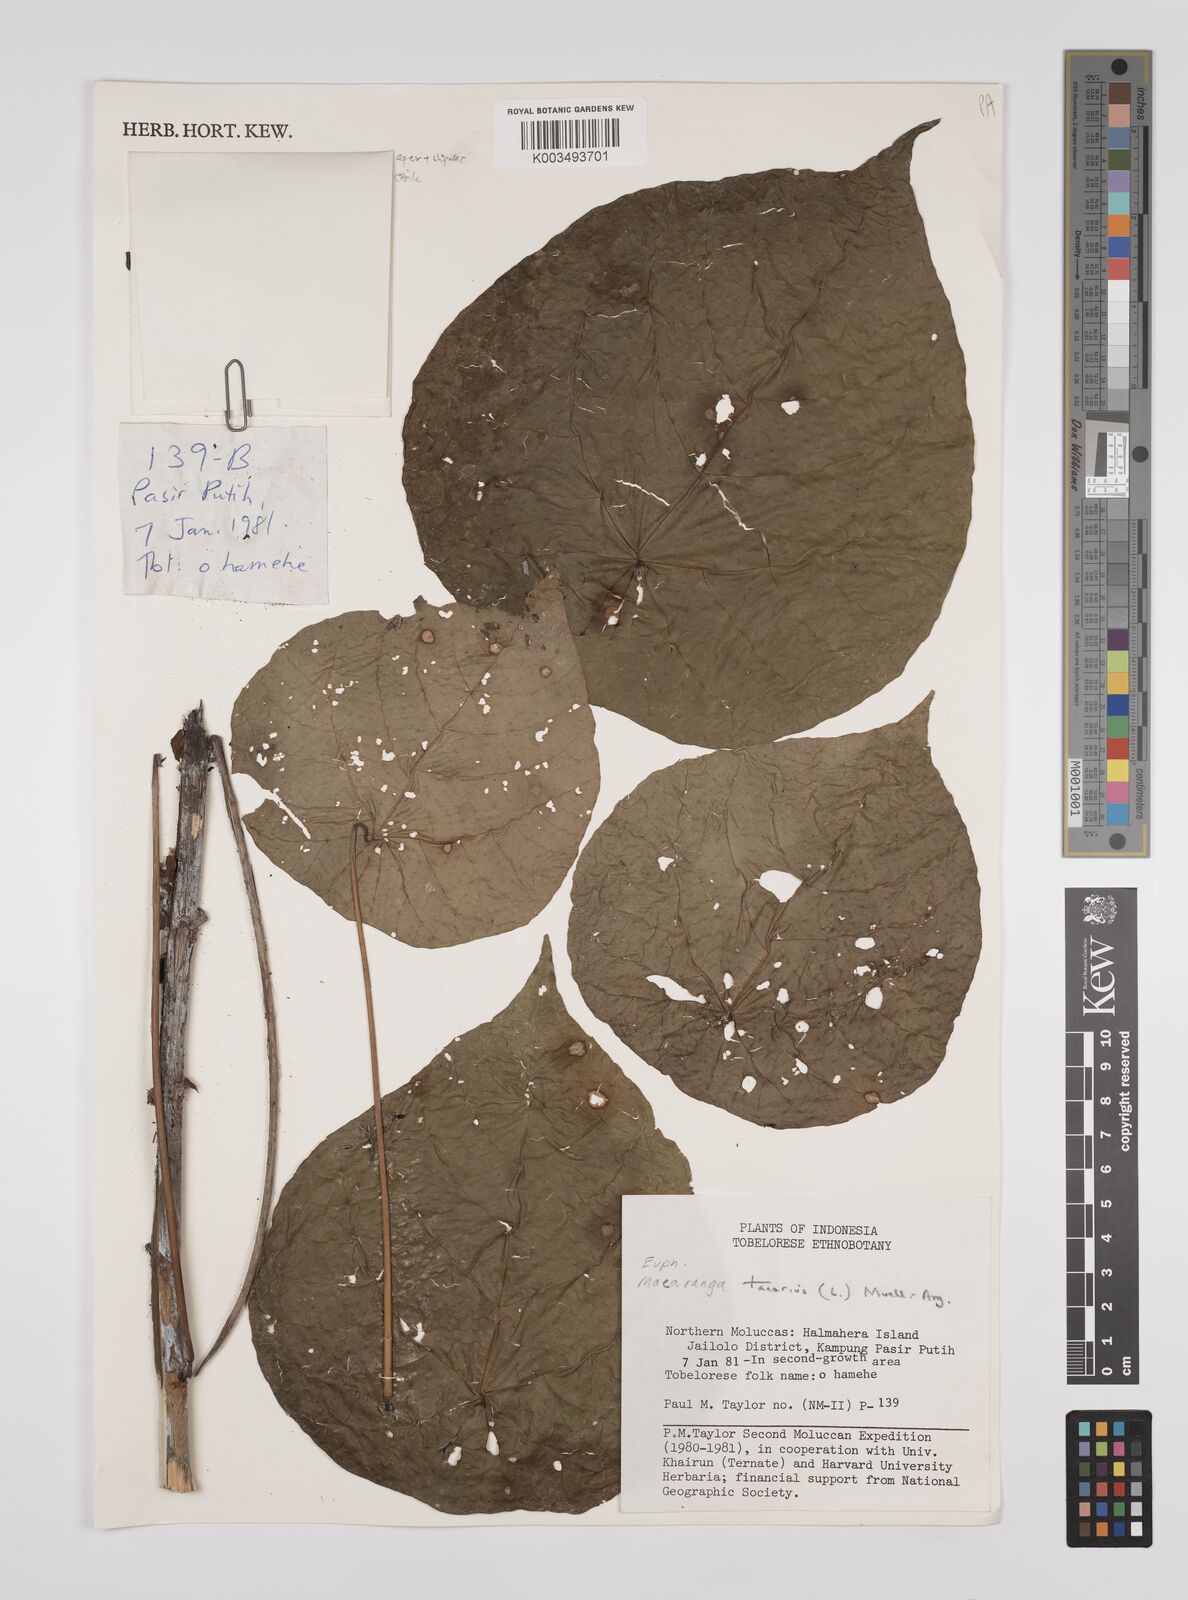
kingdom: Plantae
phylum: Tracheophyta
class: Magnoliopsida
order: Malpighiales
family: Euphorbiaceae
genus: Macaranga
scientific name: Macaranga tanarius
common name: Parasol leaf tree
